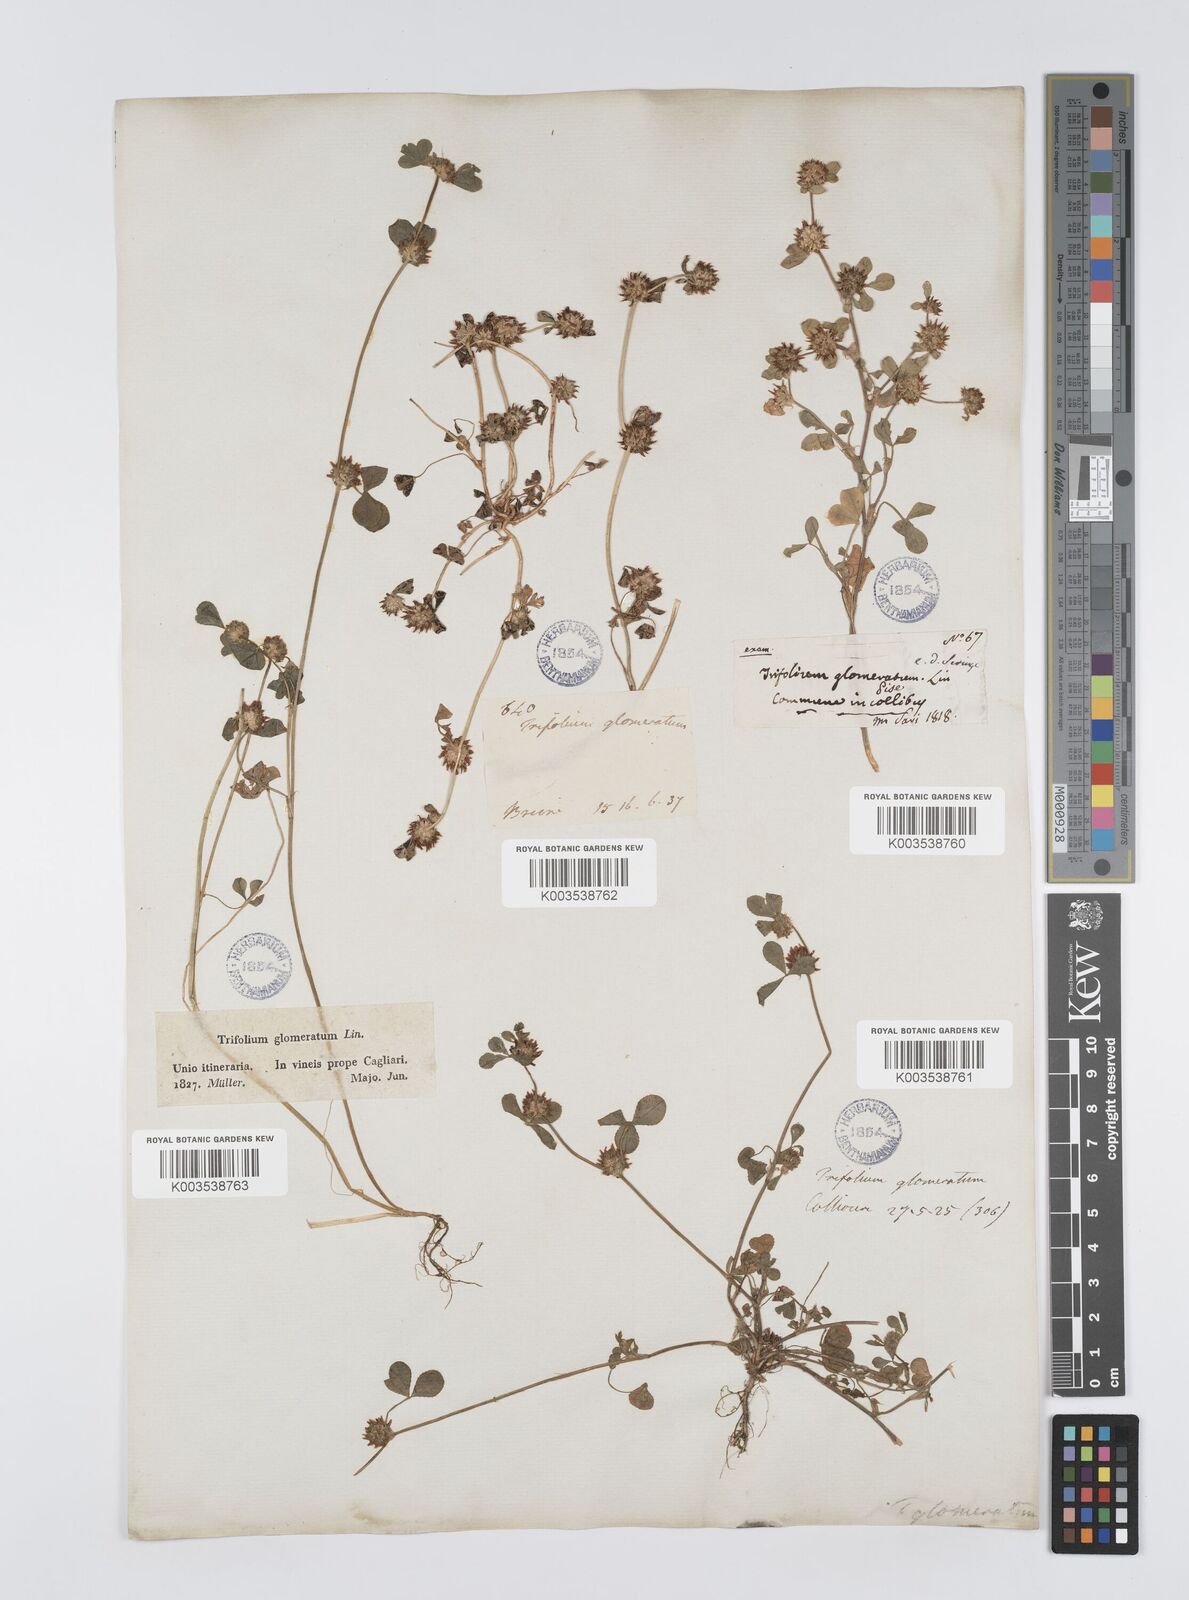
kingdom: Plantae
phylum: Tracheophyta
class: Magnoliopsida
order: Fabales
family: Fabaceae
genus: Trifolium
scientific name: Trifolium glomeratum
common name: Clustered clover
